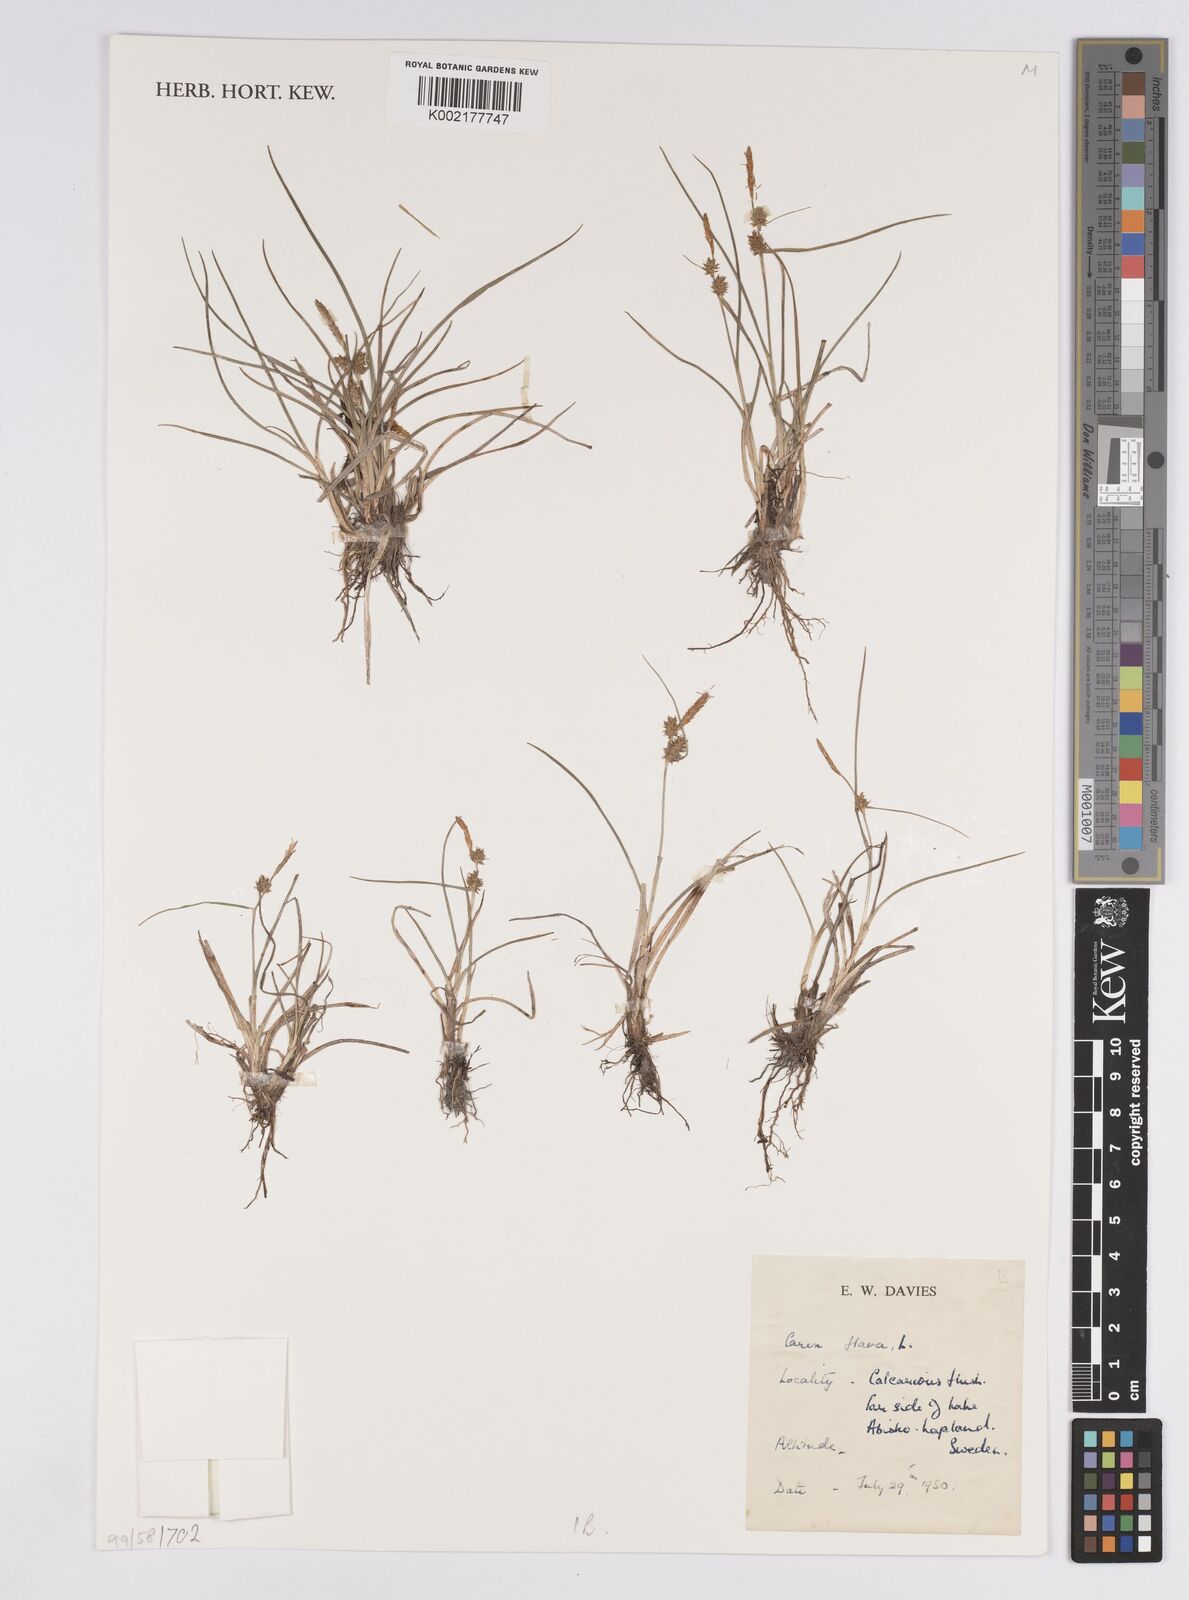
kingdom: Plantae
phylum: Tracheophyta
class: Liliopsida
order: Poales
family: Cyperaceae
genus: Carex
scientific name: Carex flava
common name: Large yellow-sedge
